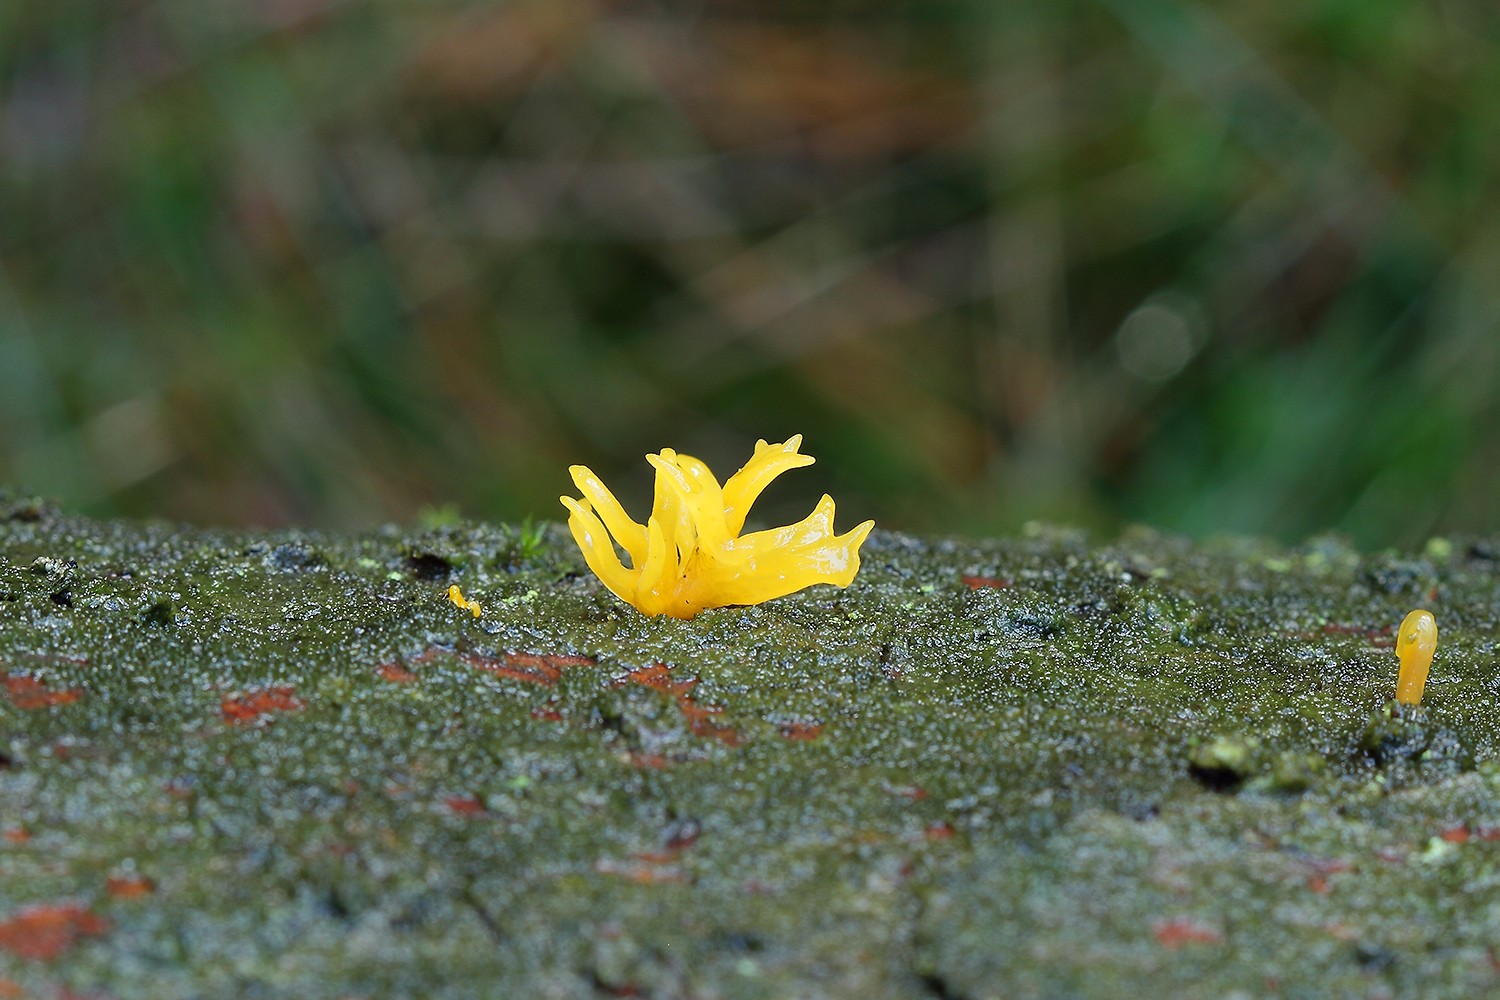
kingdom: Fungi
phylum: Basidiomycota
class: Dacrymycetes
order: Dacrymycetales
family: Dacrymycetaceae
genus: Calocera
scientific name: Calocera furcata
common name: fyrre-guldgaffel
